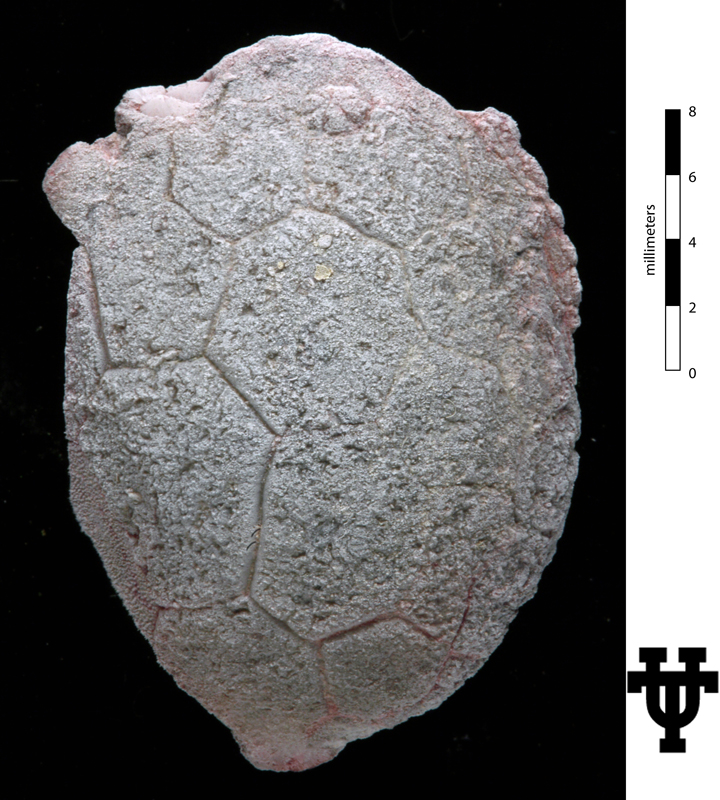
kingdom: Animalia
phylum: Echinodermata
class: Crinoidea
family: Platycystitidae
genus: Globulocystites
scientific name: Globulocystites Platycystites cristatus
